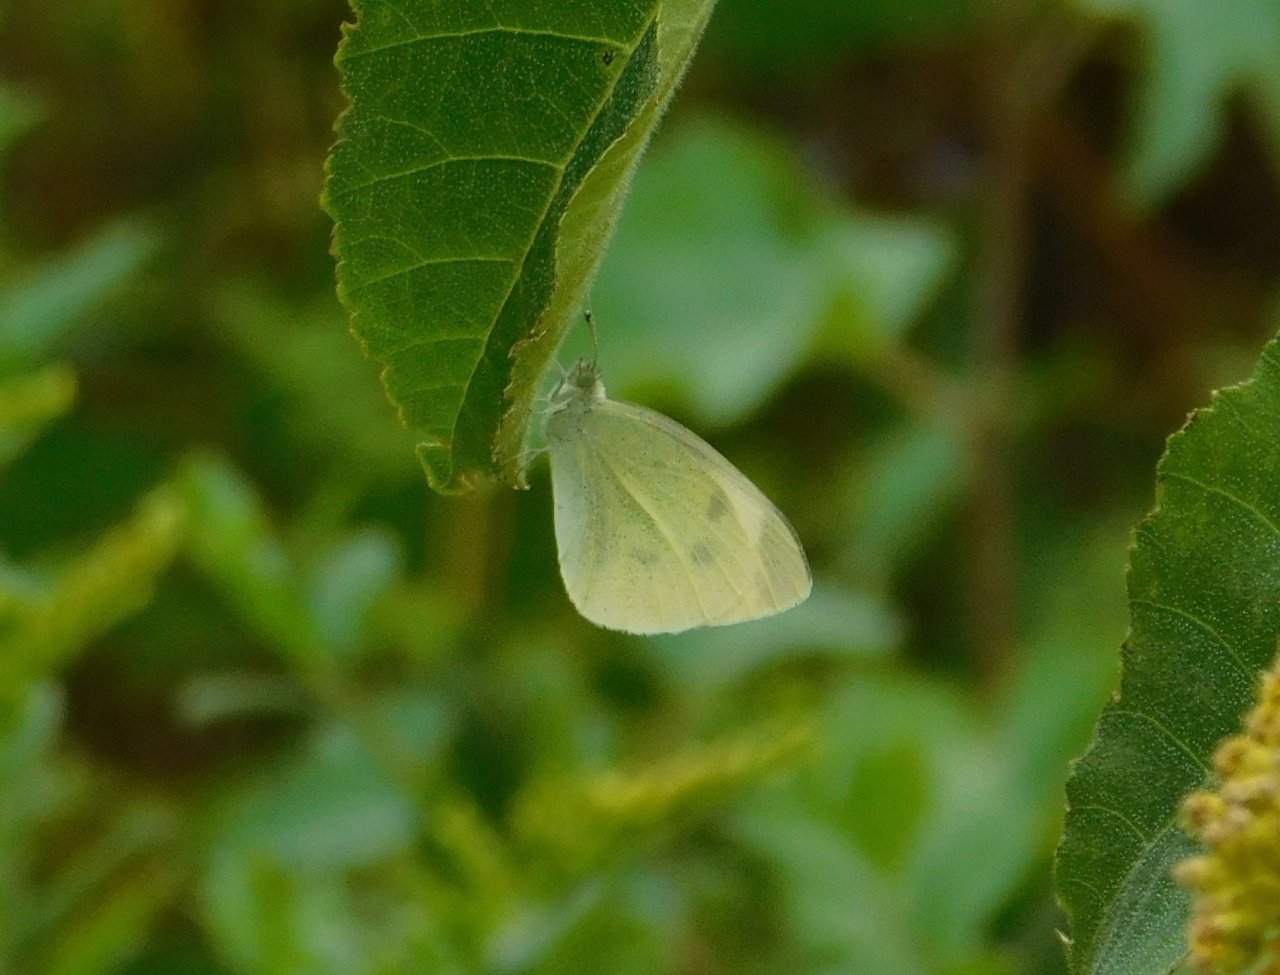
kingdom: Animalia
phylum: Arthropoda
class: Insecta
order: Lepidoptera
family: Pieridae
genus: Pieris
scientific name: Pieris rapae
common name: Cabbage White
